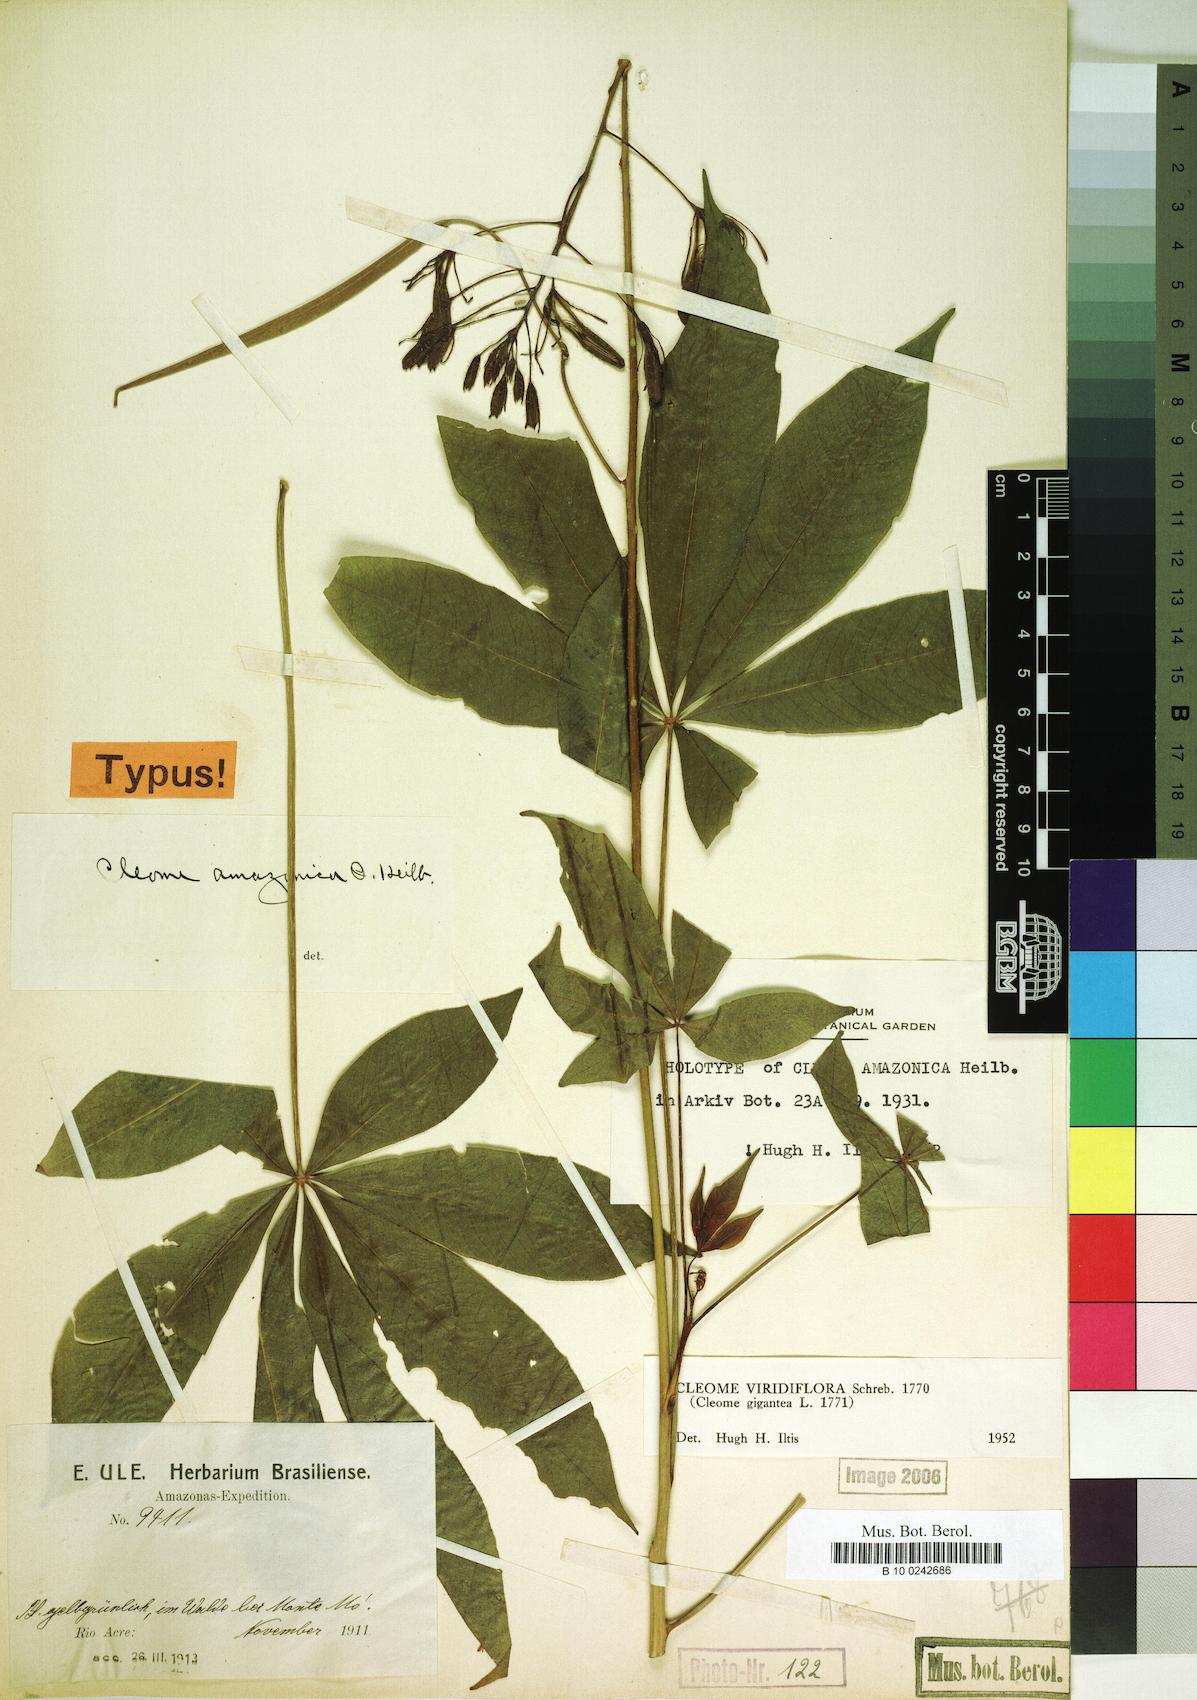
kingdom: Plantae
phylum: Tracheophyta
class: Magnoliopsida
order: Brassicales
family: Cleomaceae
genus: Melidiscus
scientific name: Melidiscus gigantea
